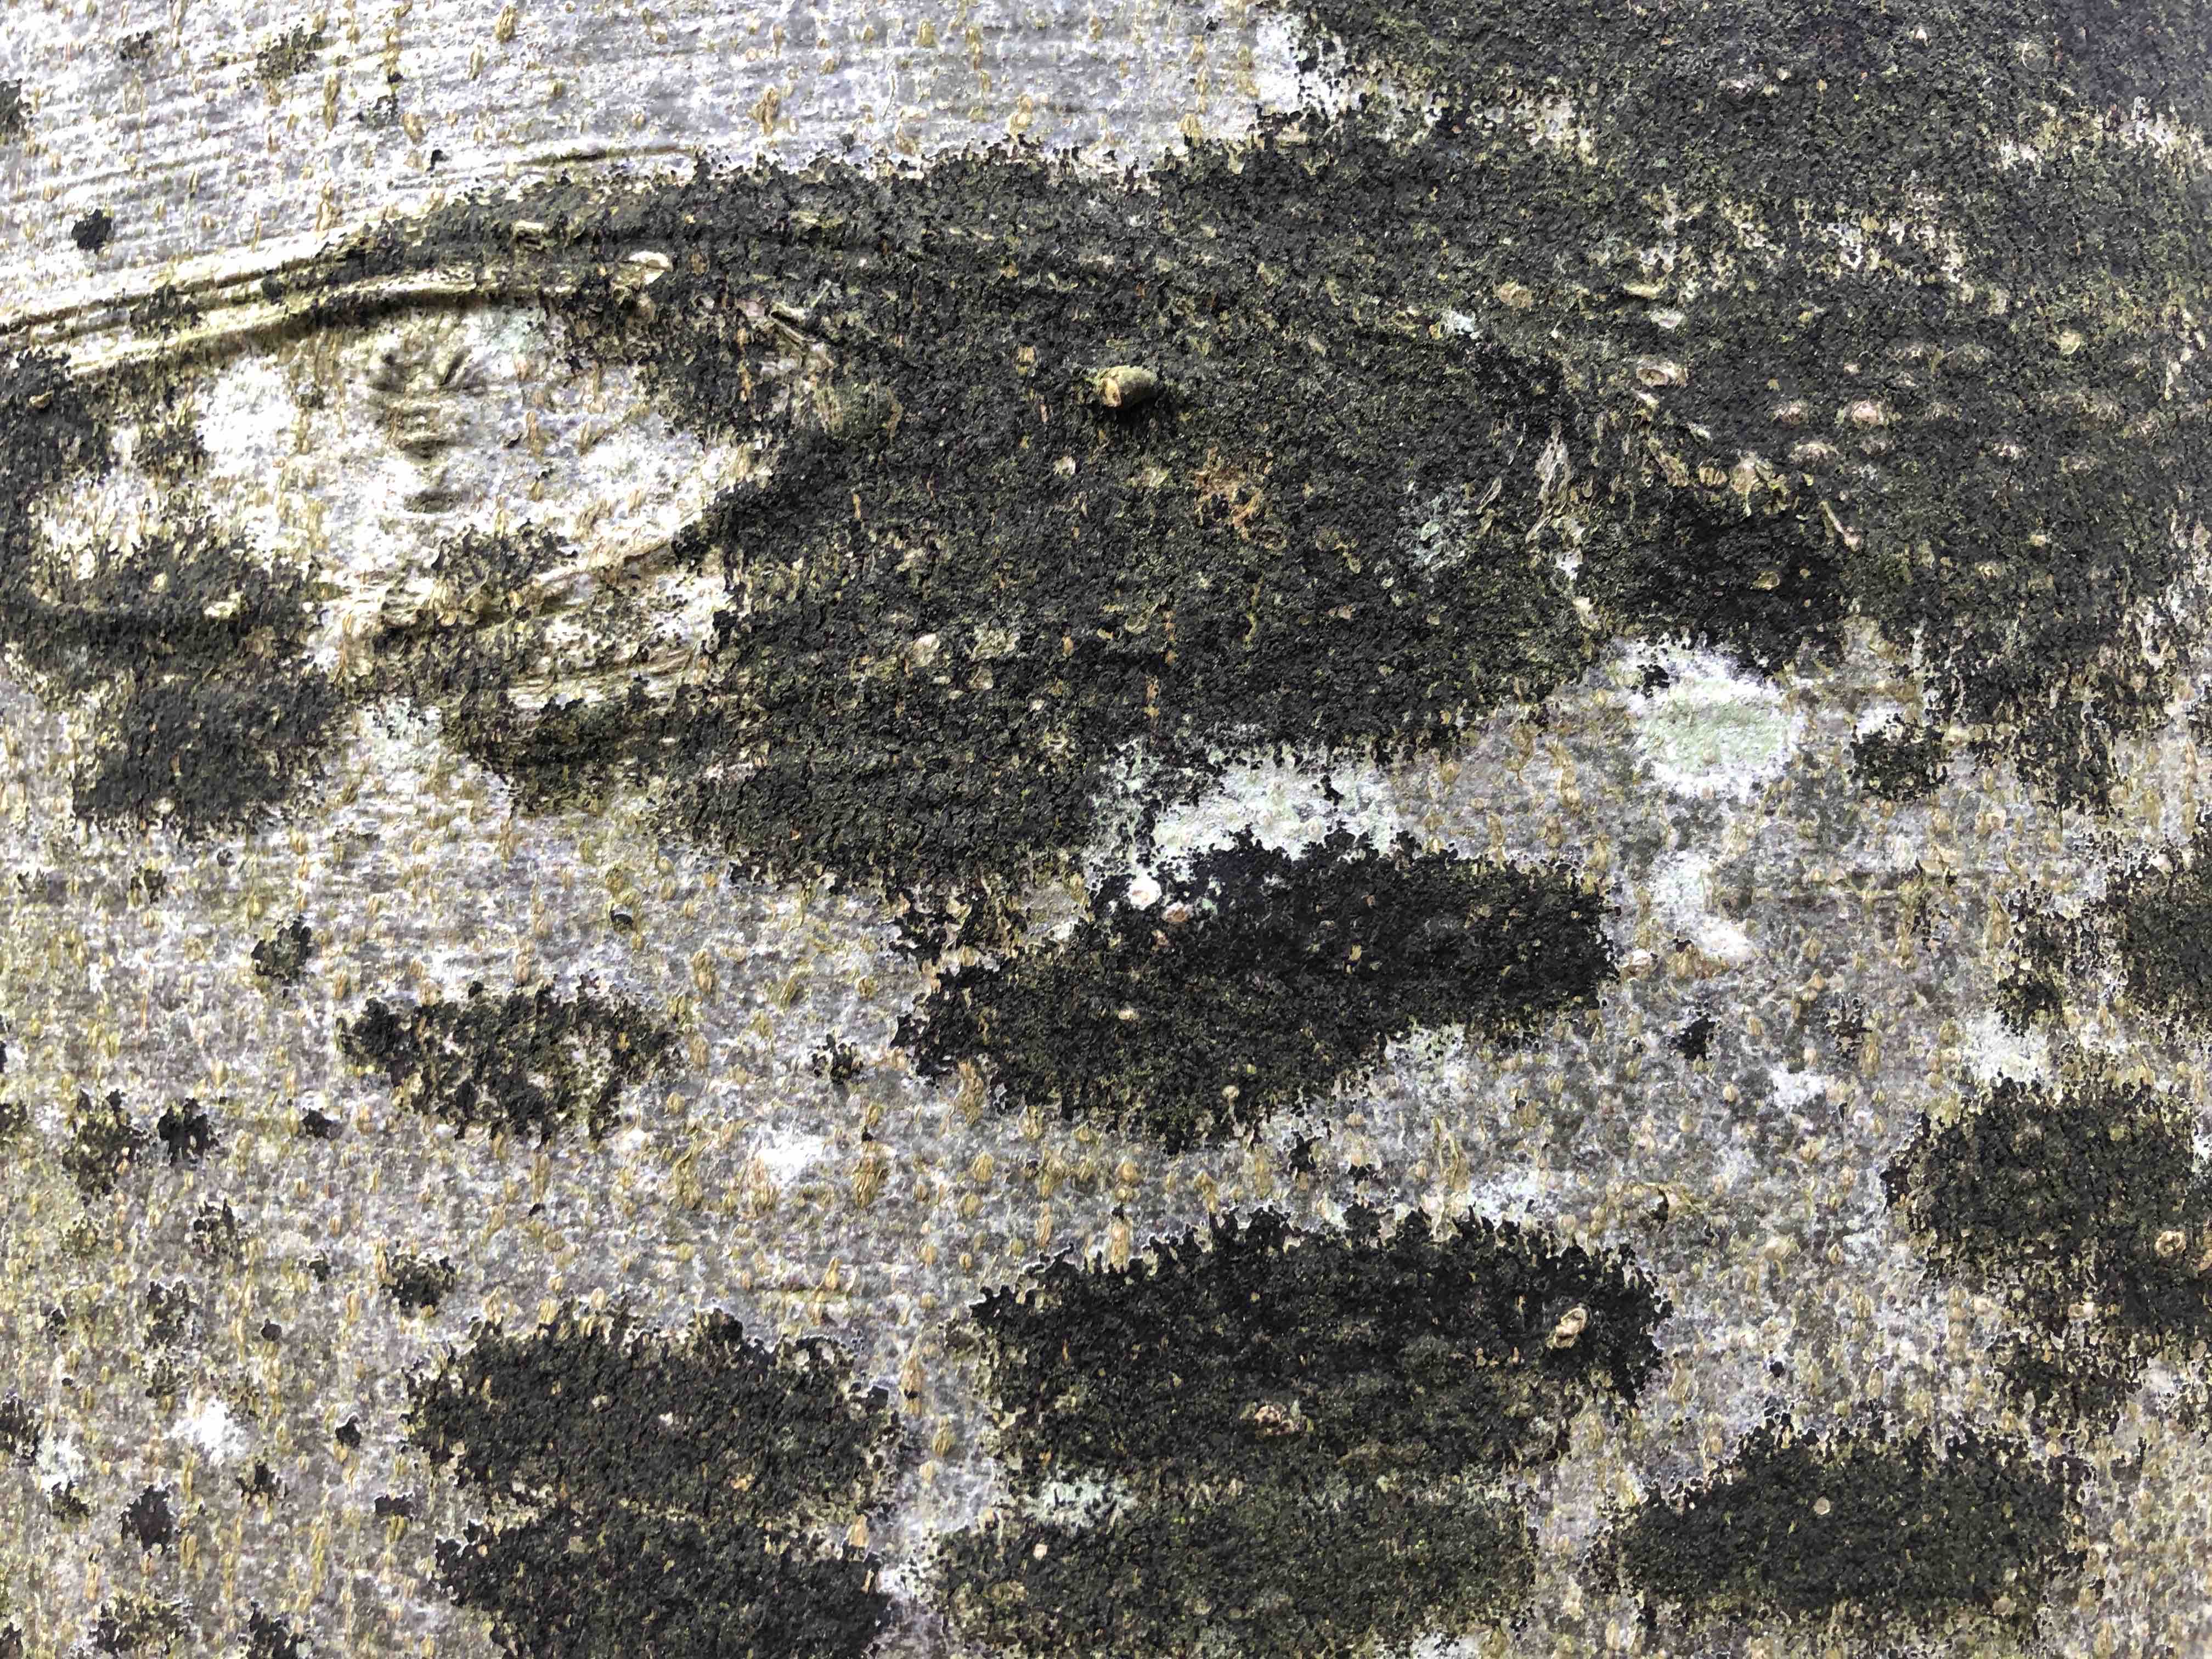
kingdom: Fungi
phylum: Ascomycota
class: Leotiomycetes
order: Rhytismatales
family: Ascodichaenaceae
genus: Ascodichaena
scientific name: Ascodichaena rugosa
